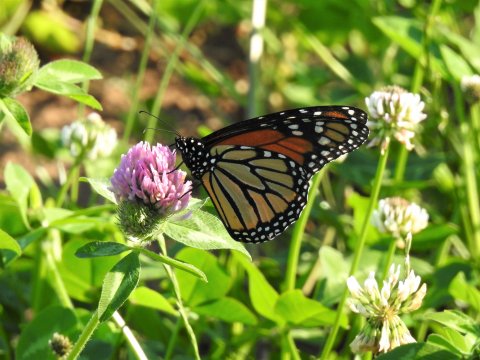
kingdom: Animalia
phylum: Arthropoda
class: Insecta
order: Lepidoptera
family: Nymphalidae
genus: Danaus
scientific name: Danaus plexippus
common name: Monarch
